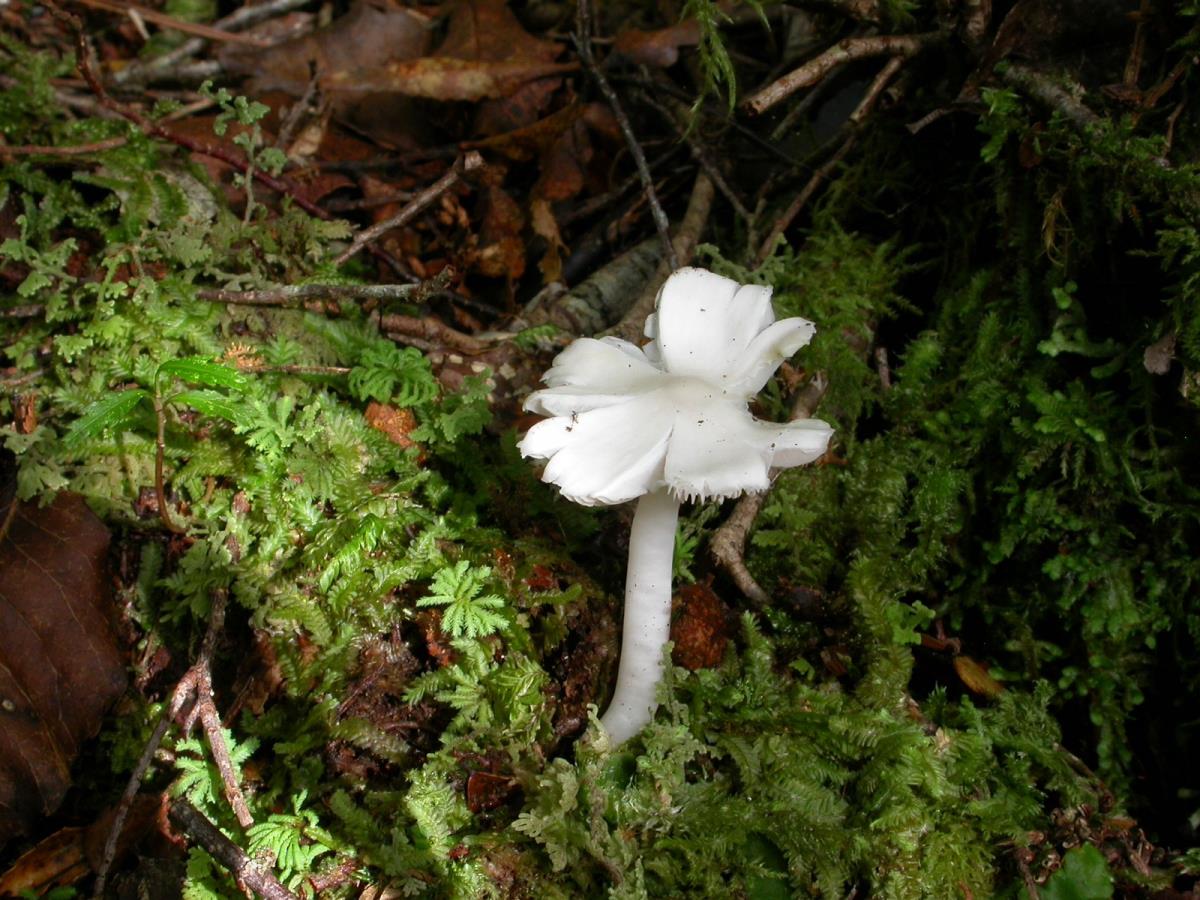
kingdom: Fungi
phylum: Basidiomycota
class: Agaricomycetes
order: Agaricales
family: Hygrophoraceae
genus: Humidicutis
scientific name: Humidicutis mavis
